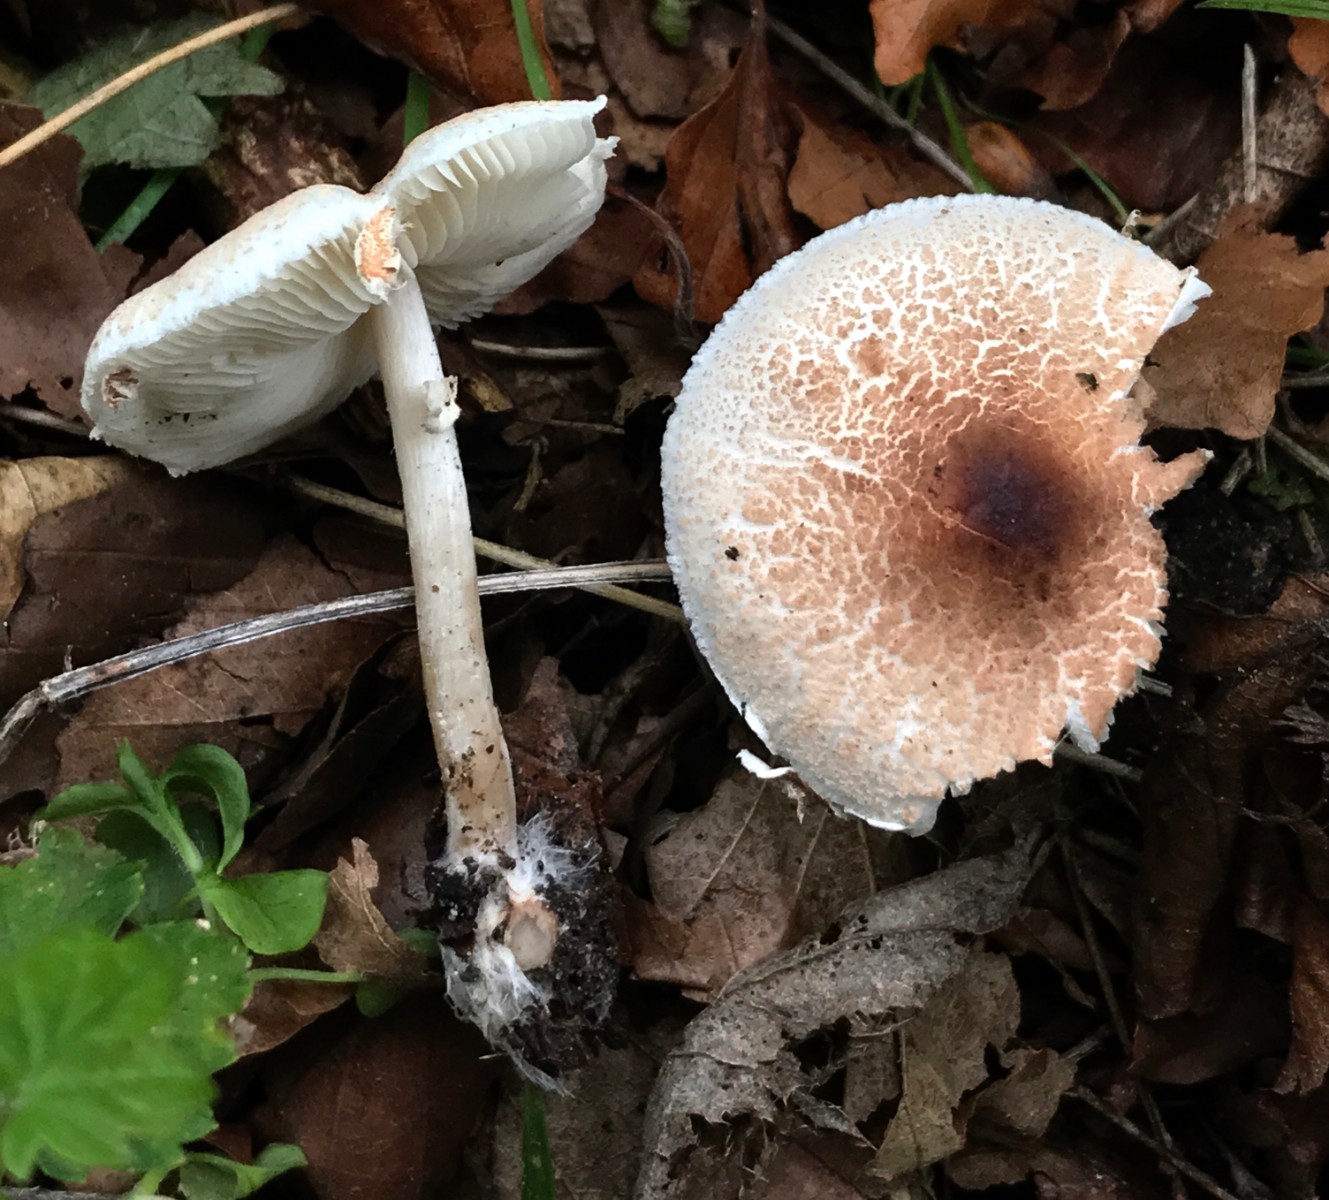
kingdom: Fungi
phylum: Basidiomycota
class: Agaricomycetes
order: Agaricales
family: Agaricaceae
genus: Lepiota
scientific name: Lepiota cristata
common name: stinkende parasolhat
